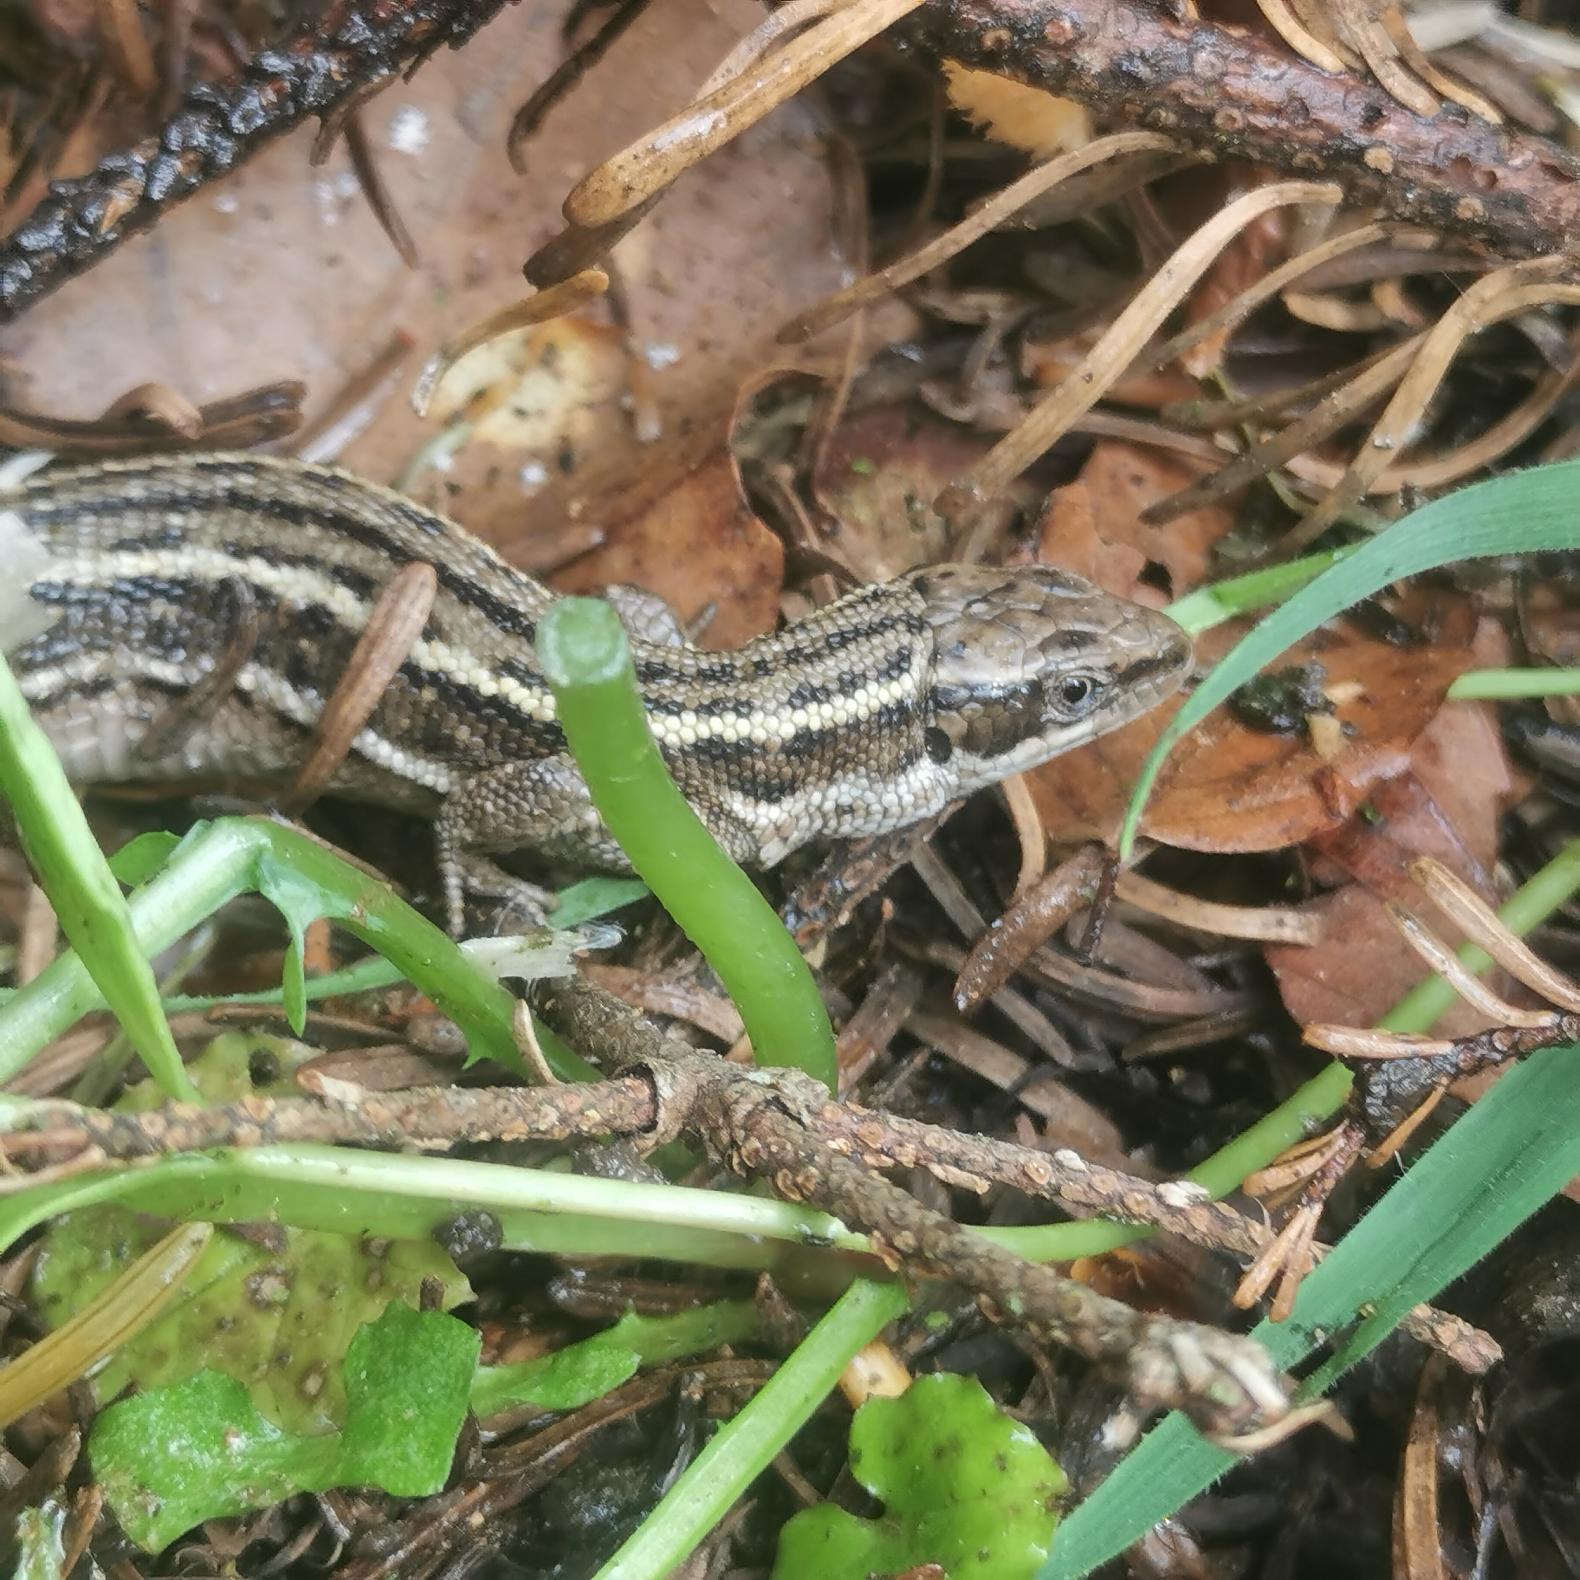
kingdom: Animalia
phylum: Chordata
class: Squamata
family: Lacertidae
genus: Zootoca
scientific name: Zootoca vivipara
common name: Skovfirben
